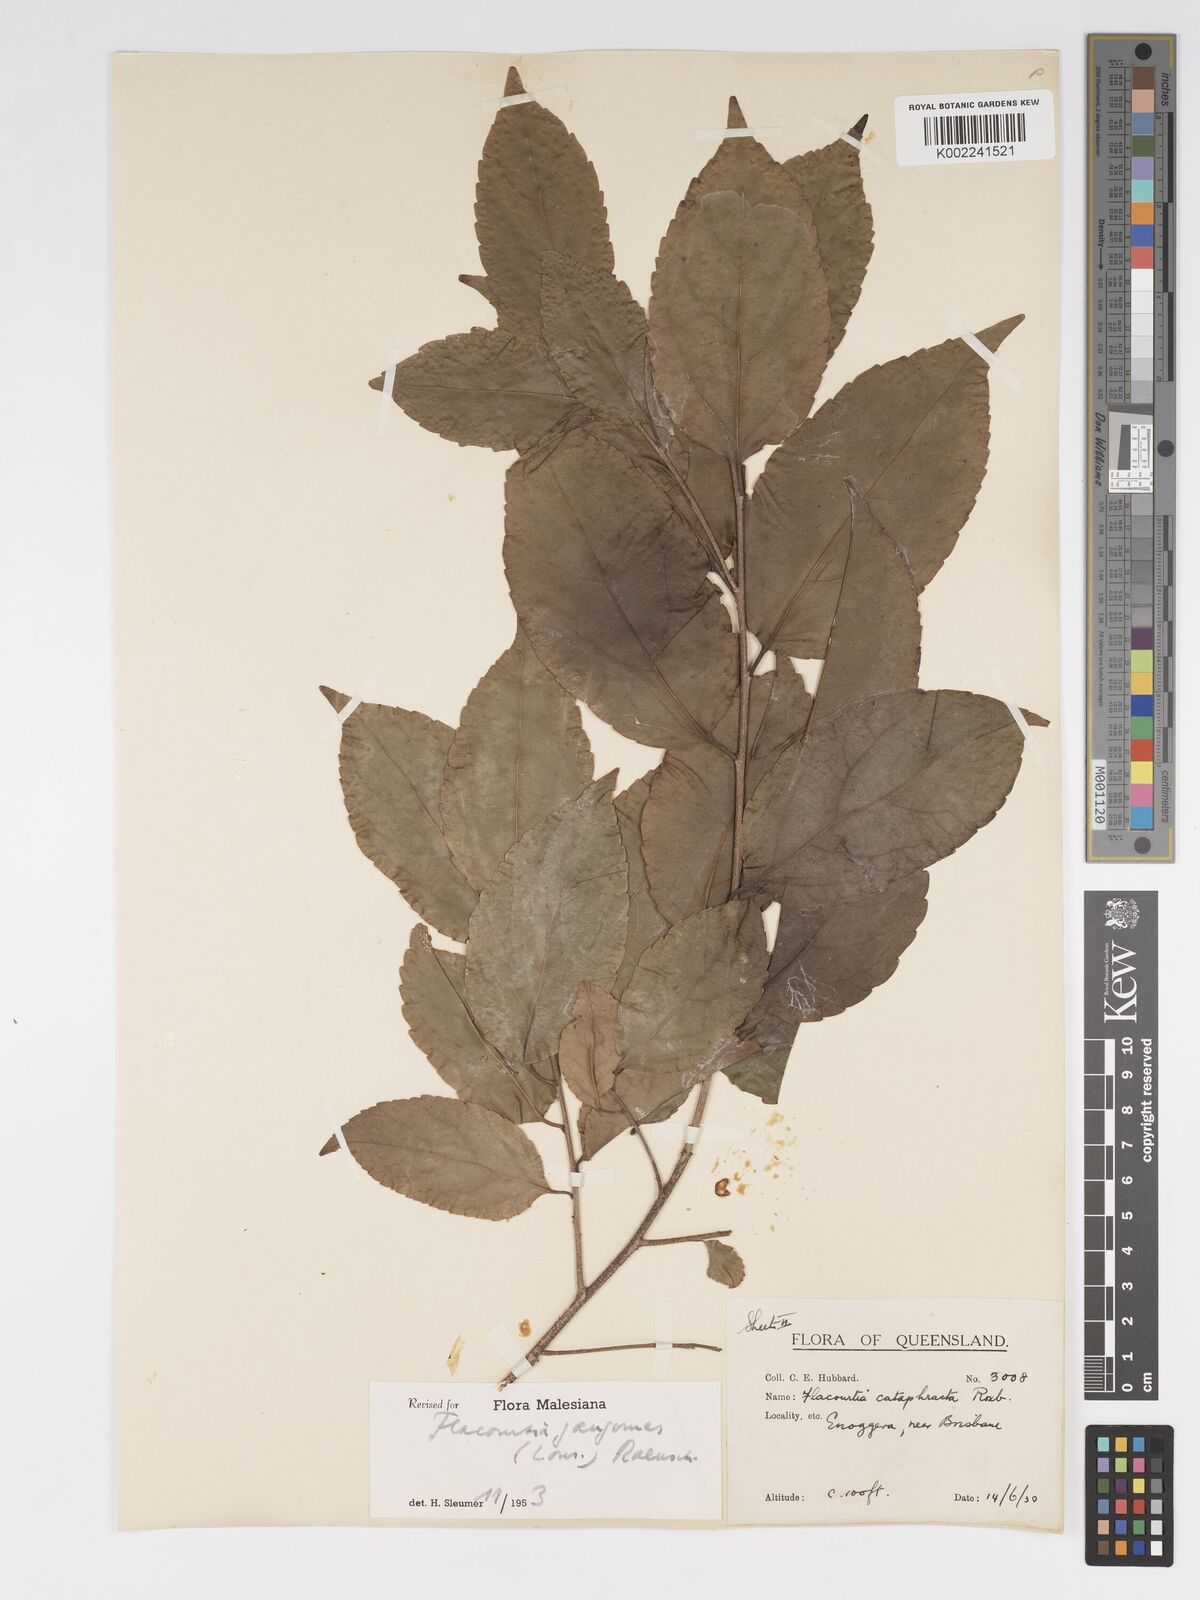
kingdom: Plantae
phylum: Tracheophyta
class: Magnoliopsida
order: Malpighiales
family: Salicaceae
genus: Flacourtia
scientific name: Flacourtia jangomas
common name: Indian-plum
